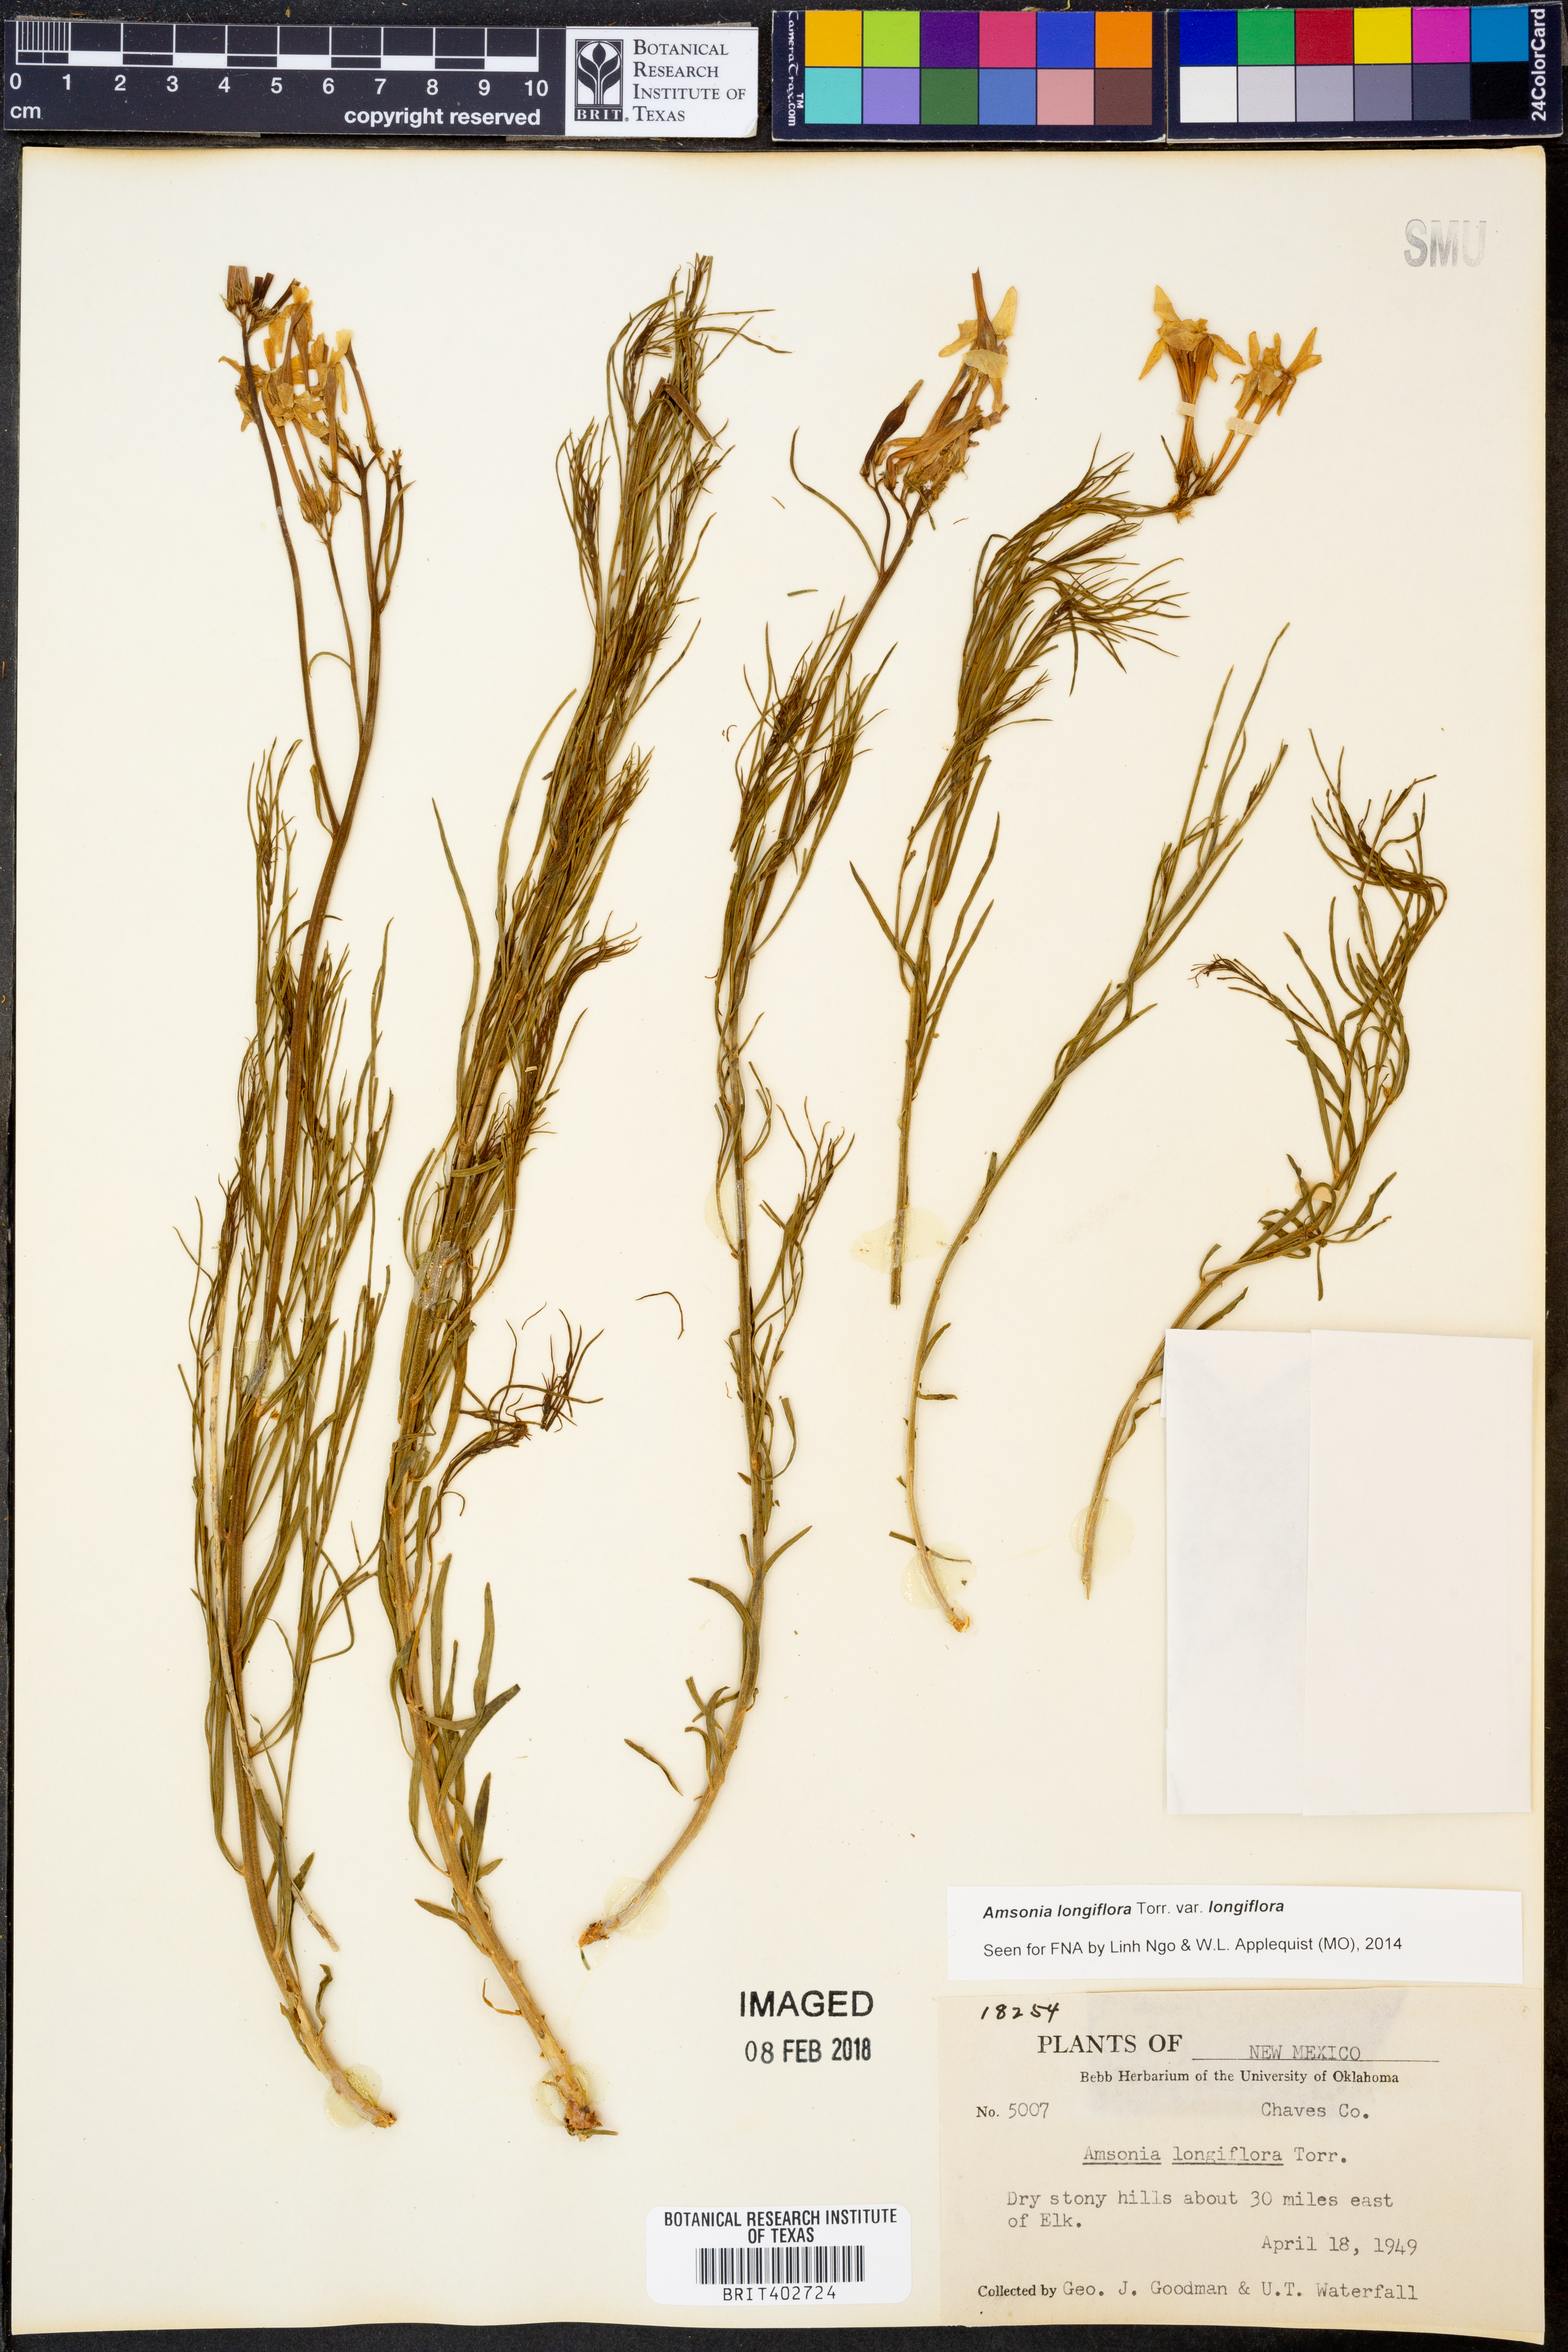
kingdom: Plantae
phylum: Tracheophyta
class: Magnoliopsida
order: Gentianales
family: Apocynaceae
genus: Amsonia
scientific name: Amsonia longiflora
